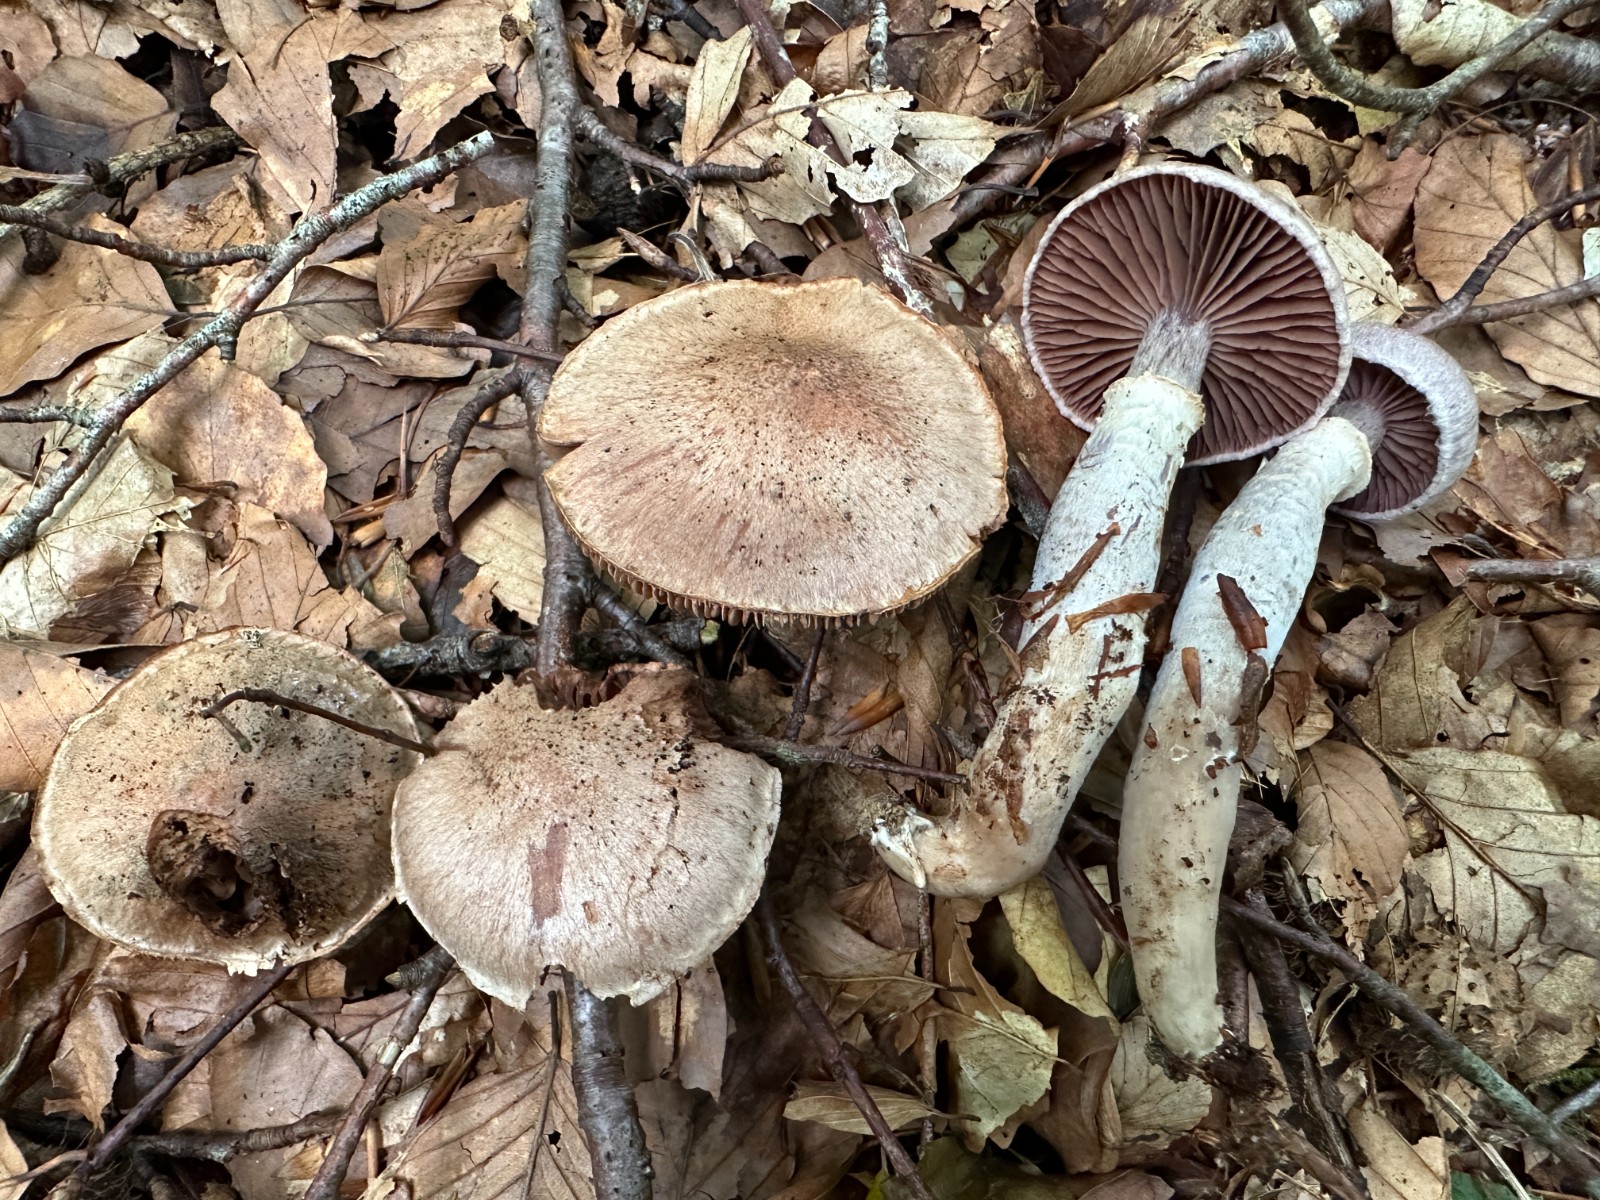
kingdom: Fungi
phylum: Basidiomycota
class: Agaricomycetes
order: Agaricales
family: Cortinariaceae
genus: Cortinarius
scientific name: Cortinarius torvus
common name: champignonagtig slørhat
